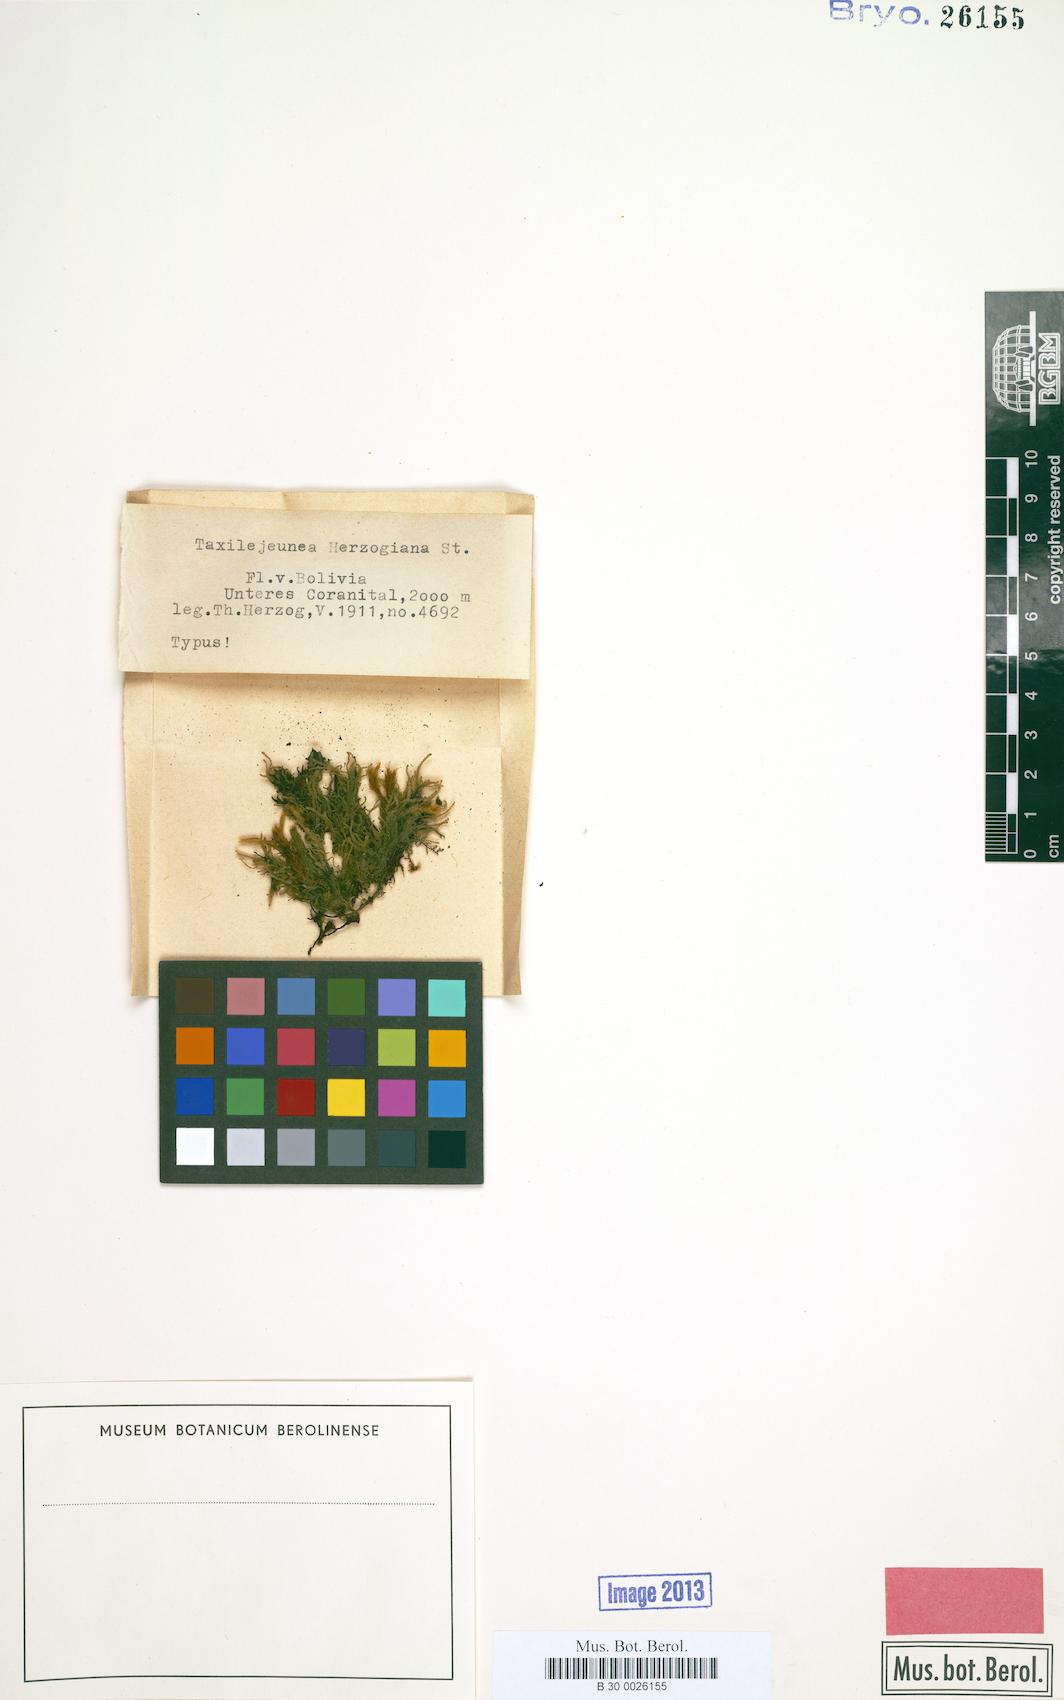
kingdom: Plantae
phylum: Marchantiophyta
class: Jungermanniopsida
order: Porellales
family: Lejeuneaceae
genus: Taxilejeunea
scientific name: Taxilejeunea herzogiana
